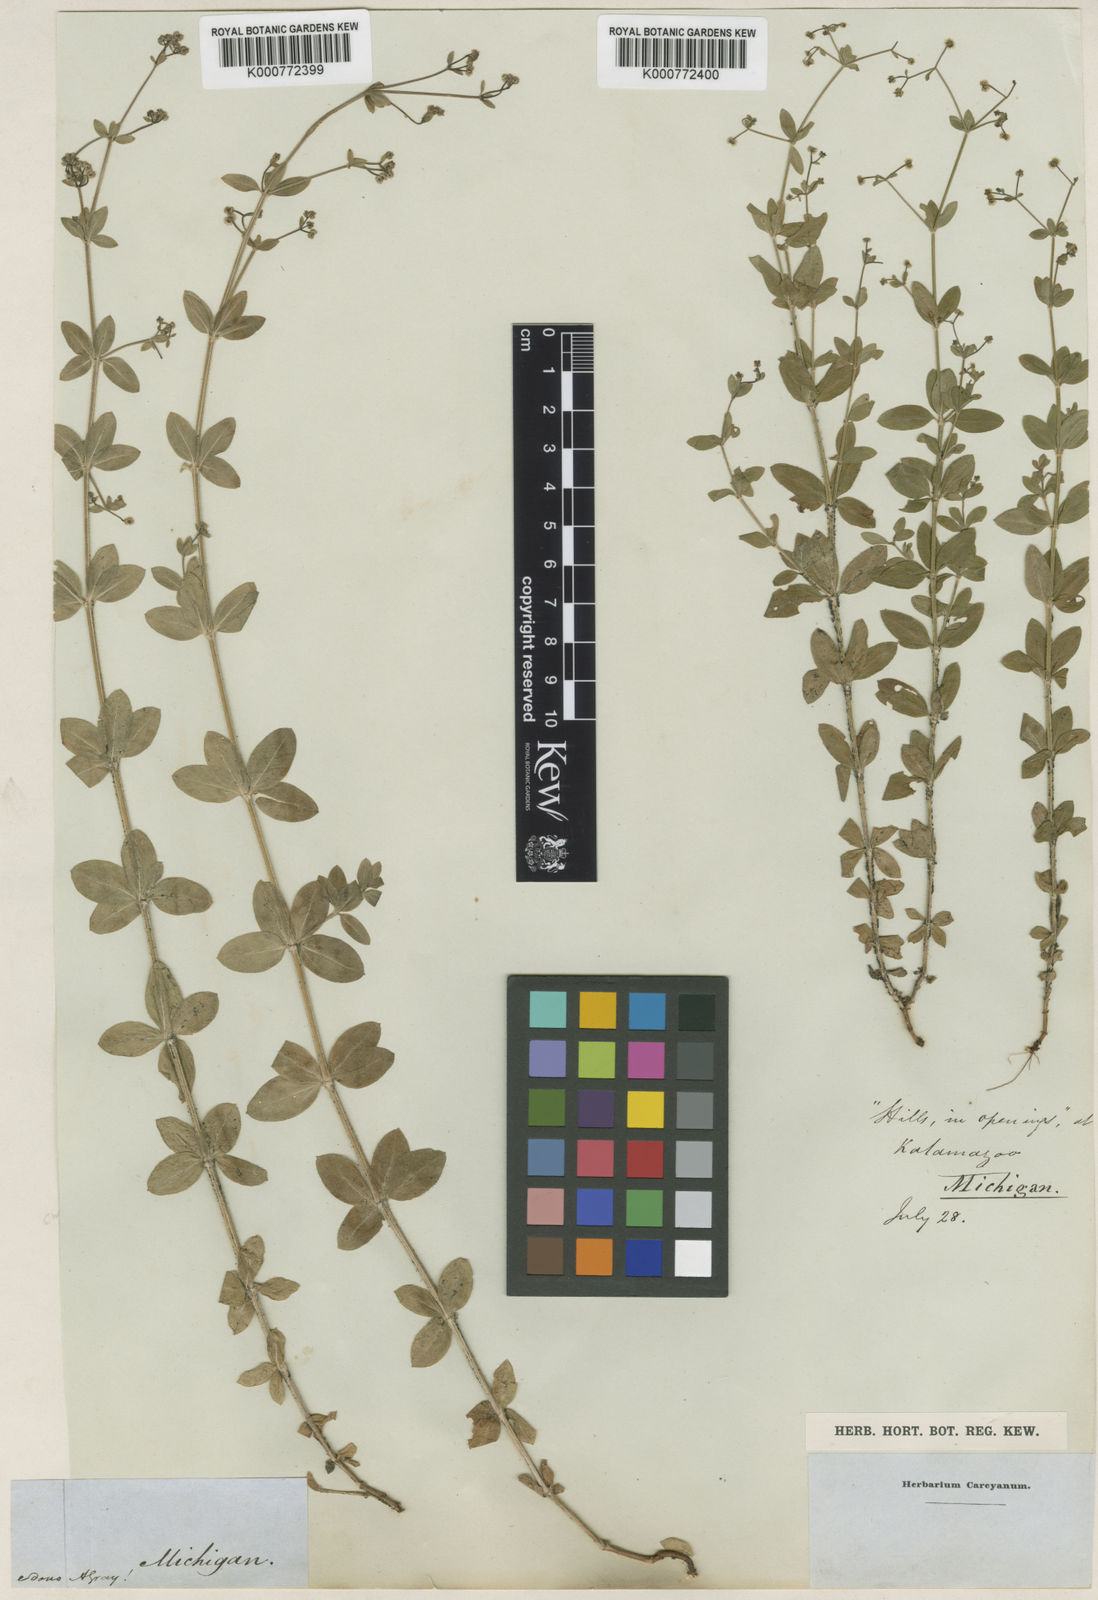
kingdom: Plantae
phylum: Tracheophyta
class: Magnoliopsida
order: Gentianales
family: Rubiaceae
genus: Galium
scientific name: Galium pilosum
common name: Hairy bedstraw
